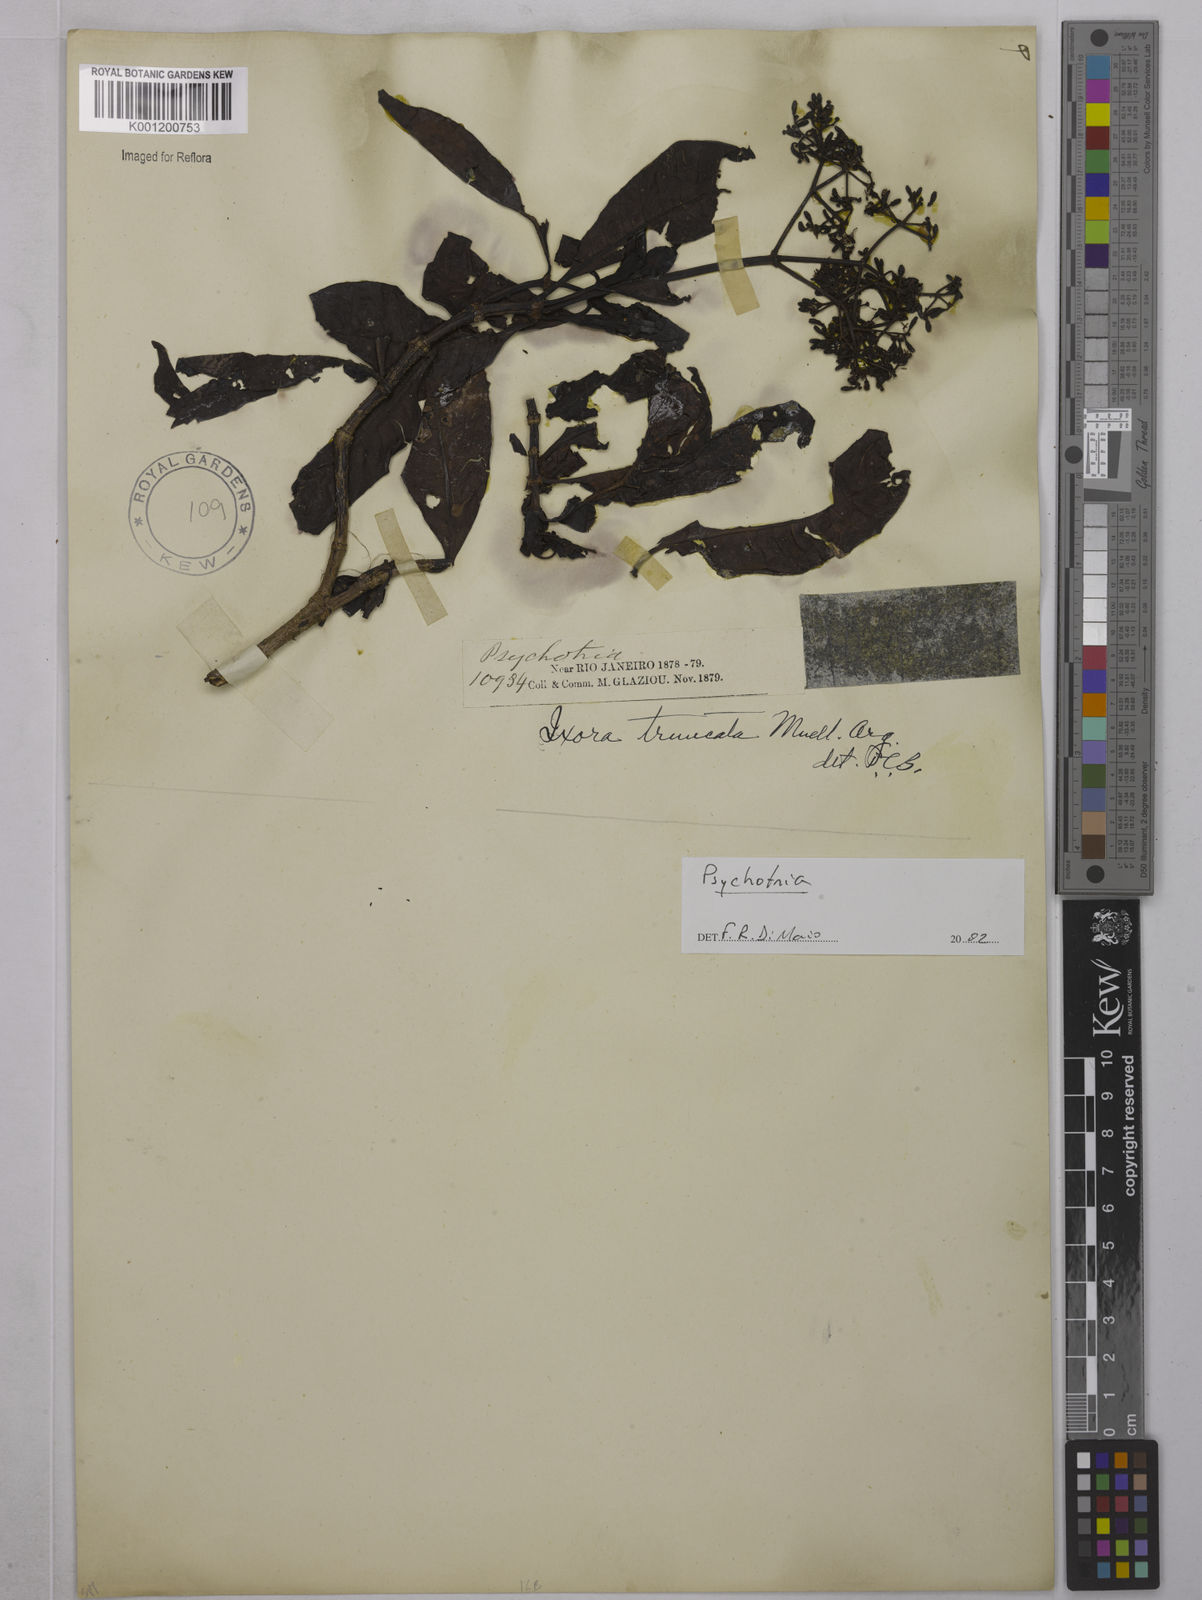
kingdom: Plantae
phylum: Tracheophyta
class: Magnoliopsida
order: Gentianales
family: Rubiaceae
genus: Psychotria
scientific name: Psychotria
